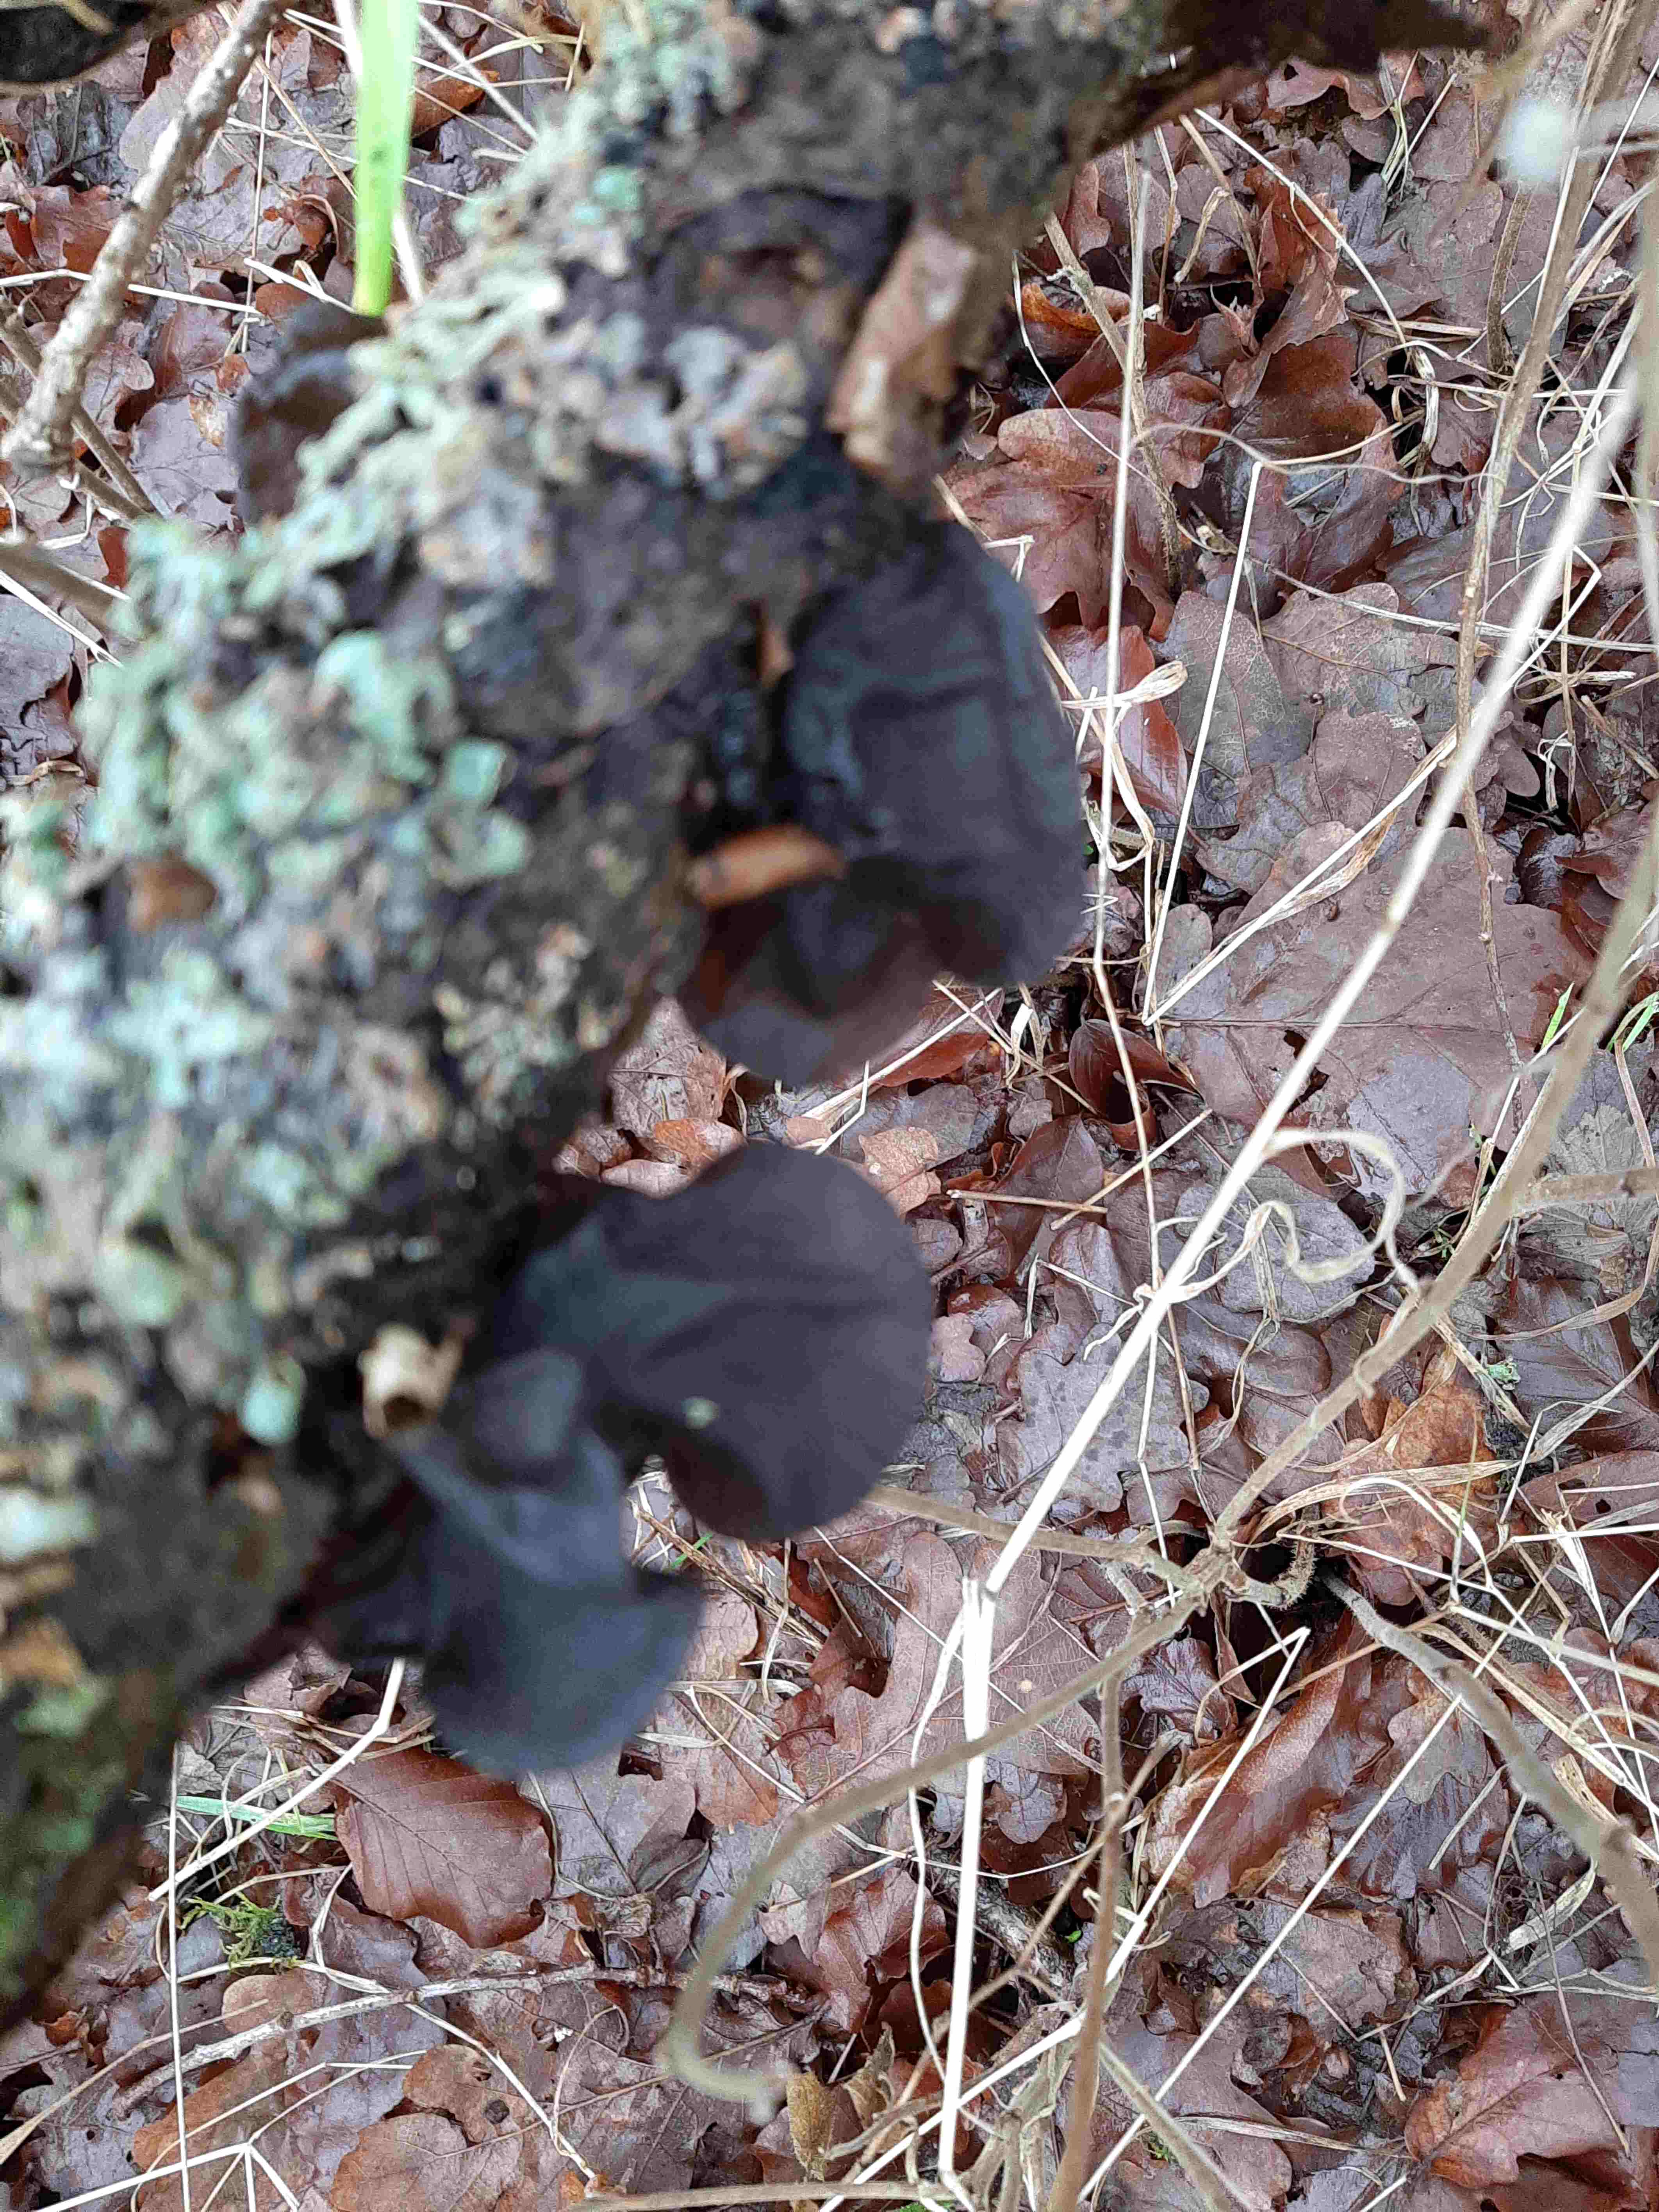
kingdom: Fungi
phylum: Basidiomycota
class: Agaricomycetes
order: Auriculariales
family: Auriculariaceae
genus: Exidia
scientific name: Exidia glandulosa
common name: ege-bævretop
